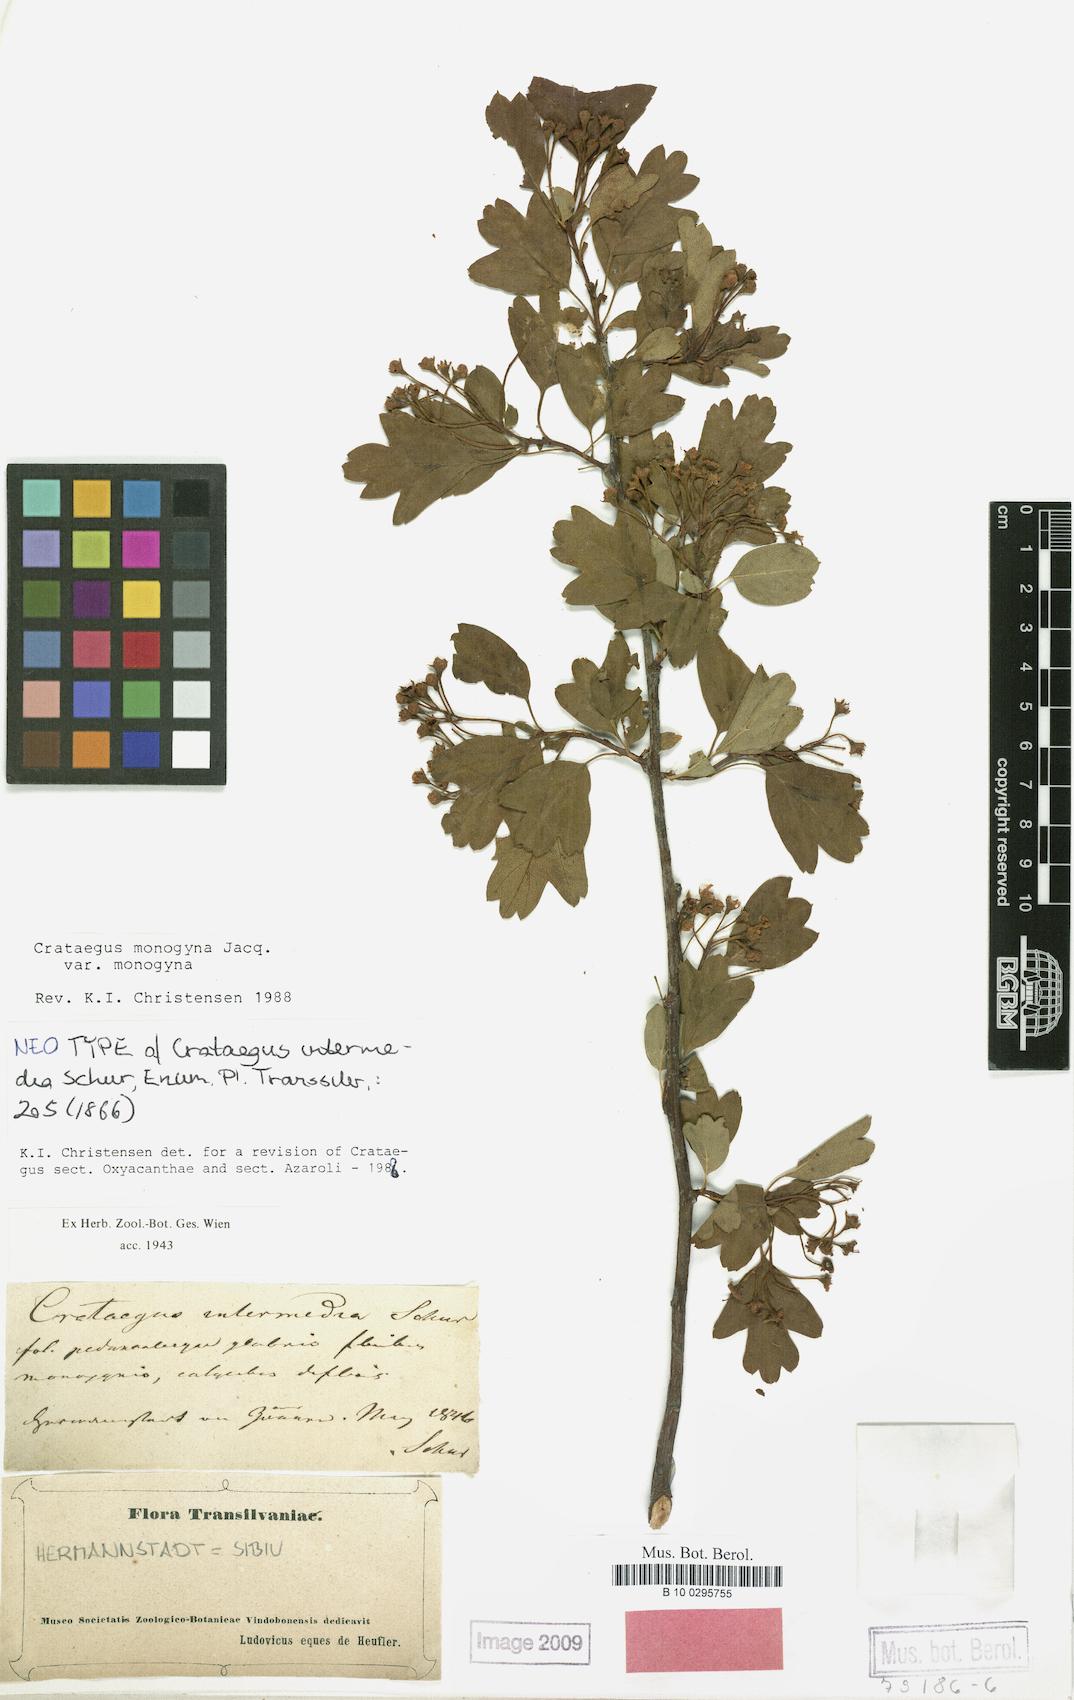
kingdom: Plantae
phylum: Tracheophyta
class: Magnoliopsida
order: Rosales
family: Rosaceae
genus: Crataegus
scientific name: Crataegus monogyna
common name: Hawthorn
